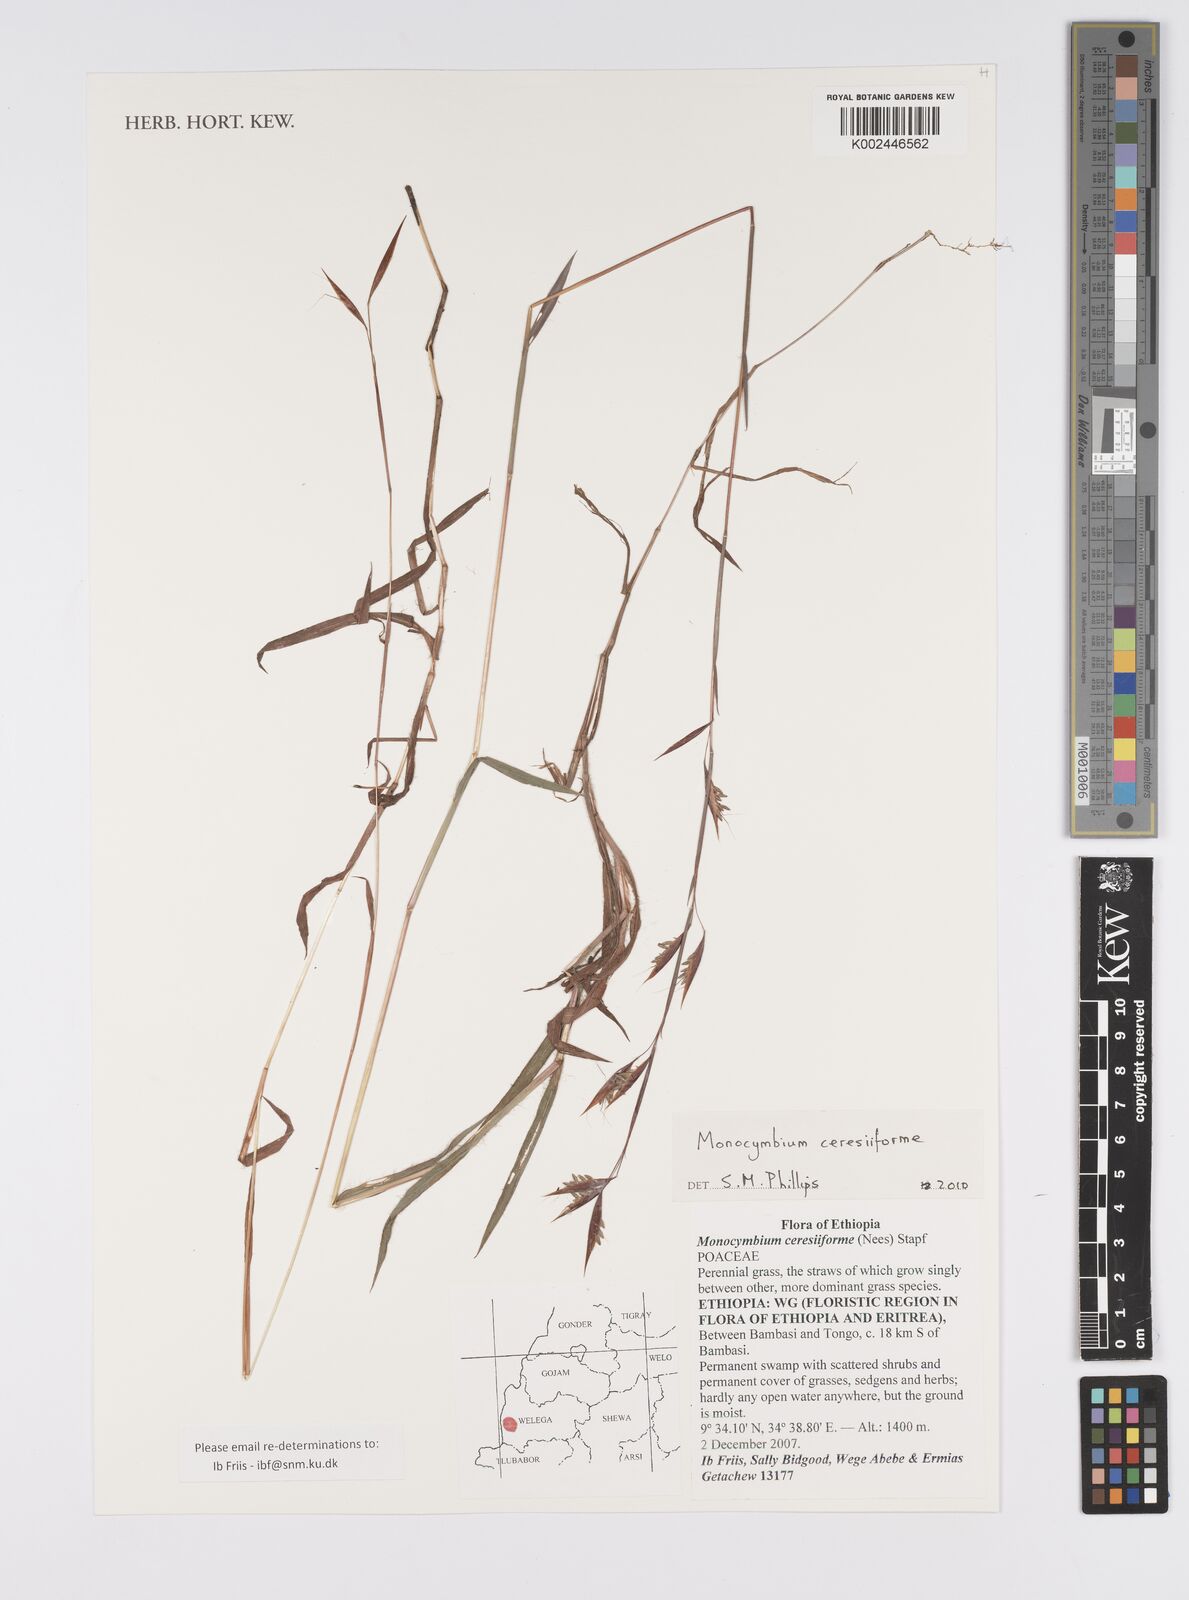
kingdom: Plantae
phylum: Tracheophyta
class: Liliopsida
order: Poales
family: Poaceae
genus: Monocymbium
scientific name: Monocymbium ceresiiforme
